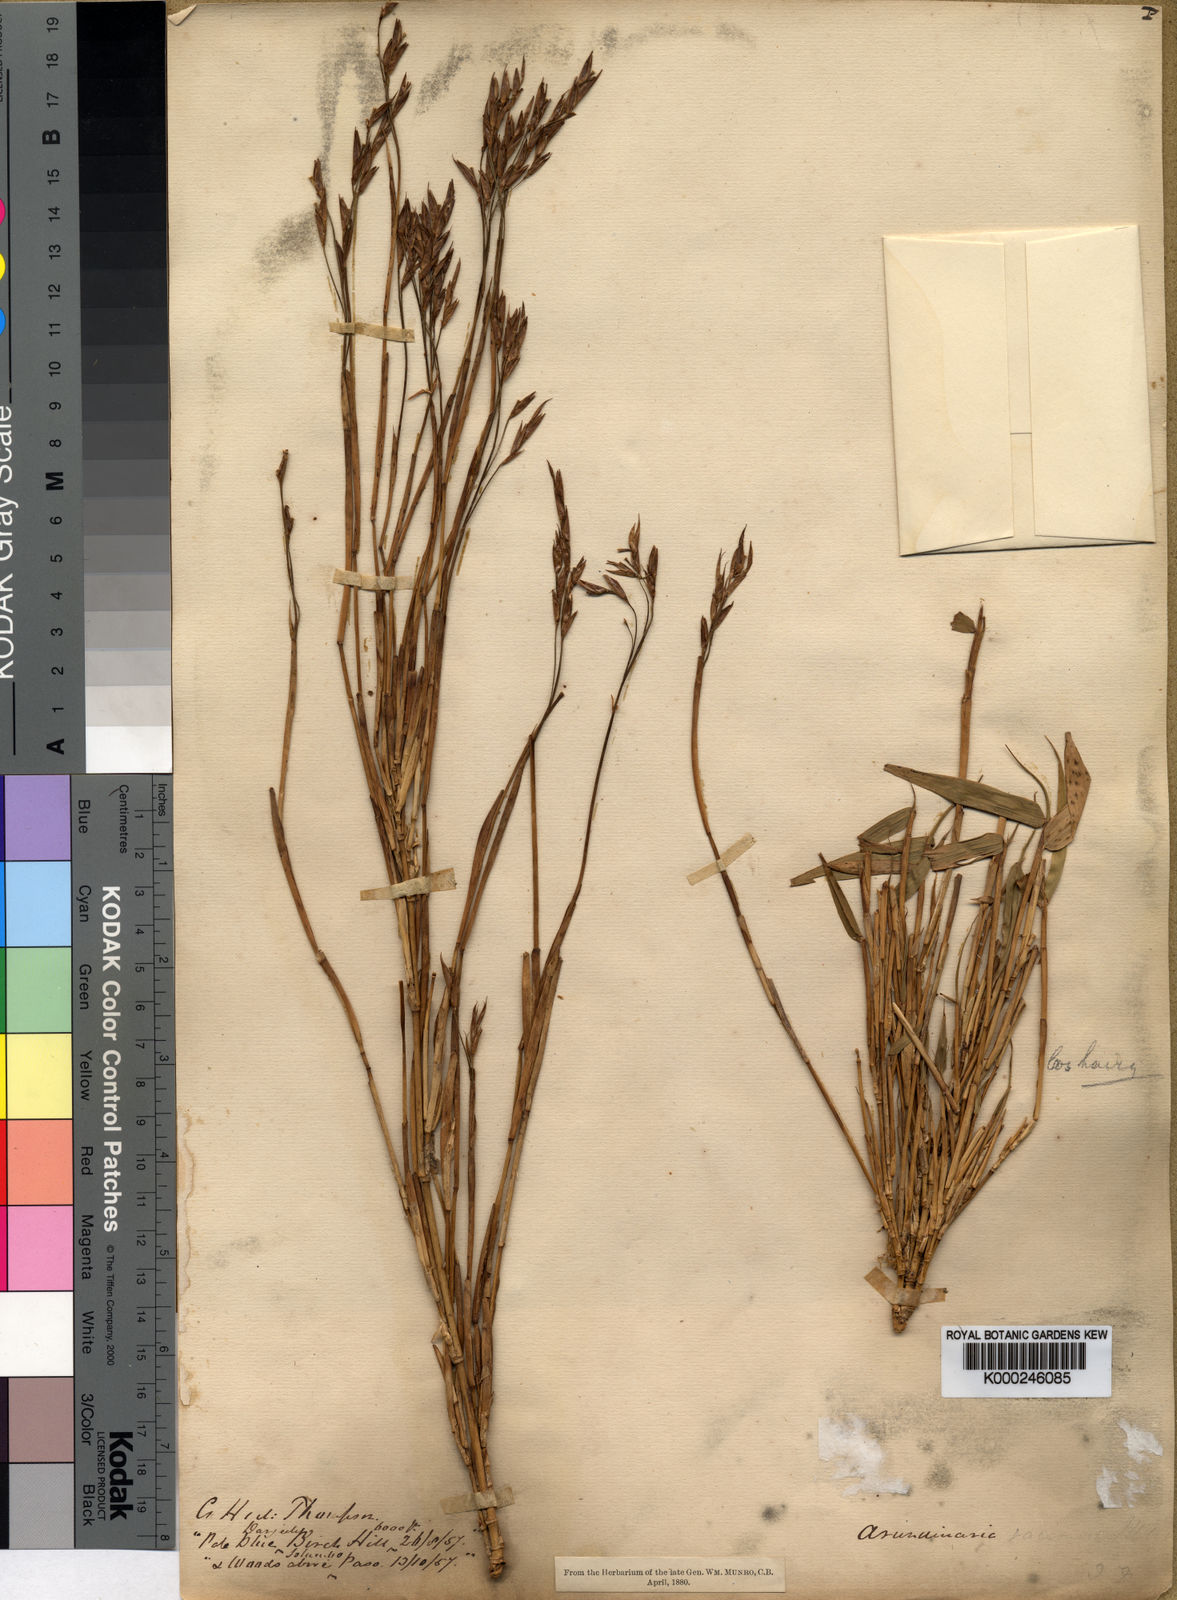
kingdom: Plantae
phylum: Tracheophyta
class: Liliopsida
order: Poales
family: Poaceae
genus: Sarocalamus
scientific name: Sarocalamus racemosus
